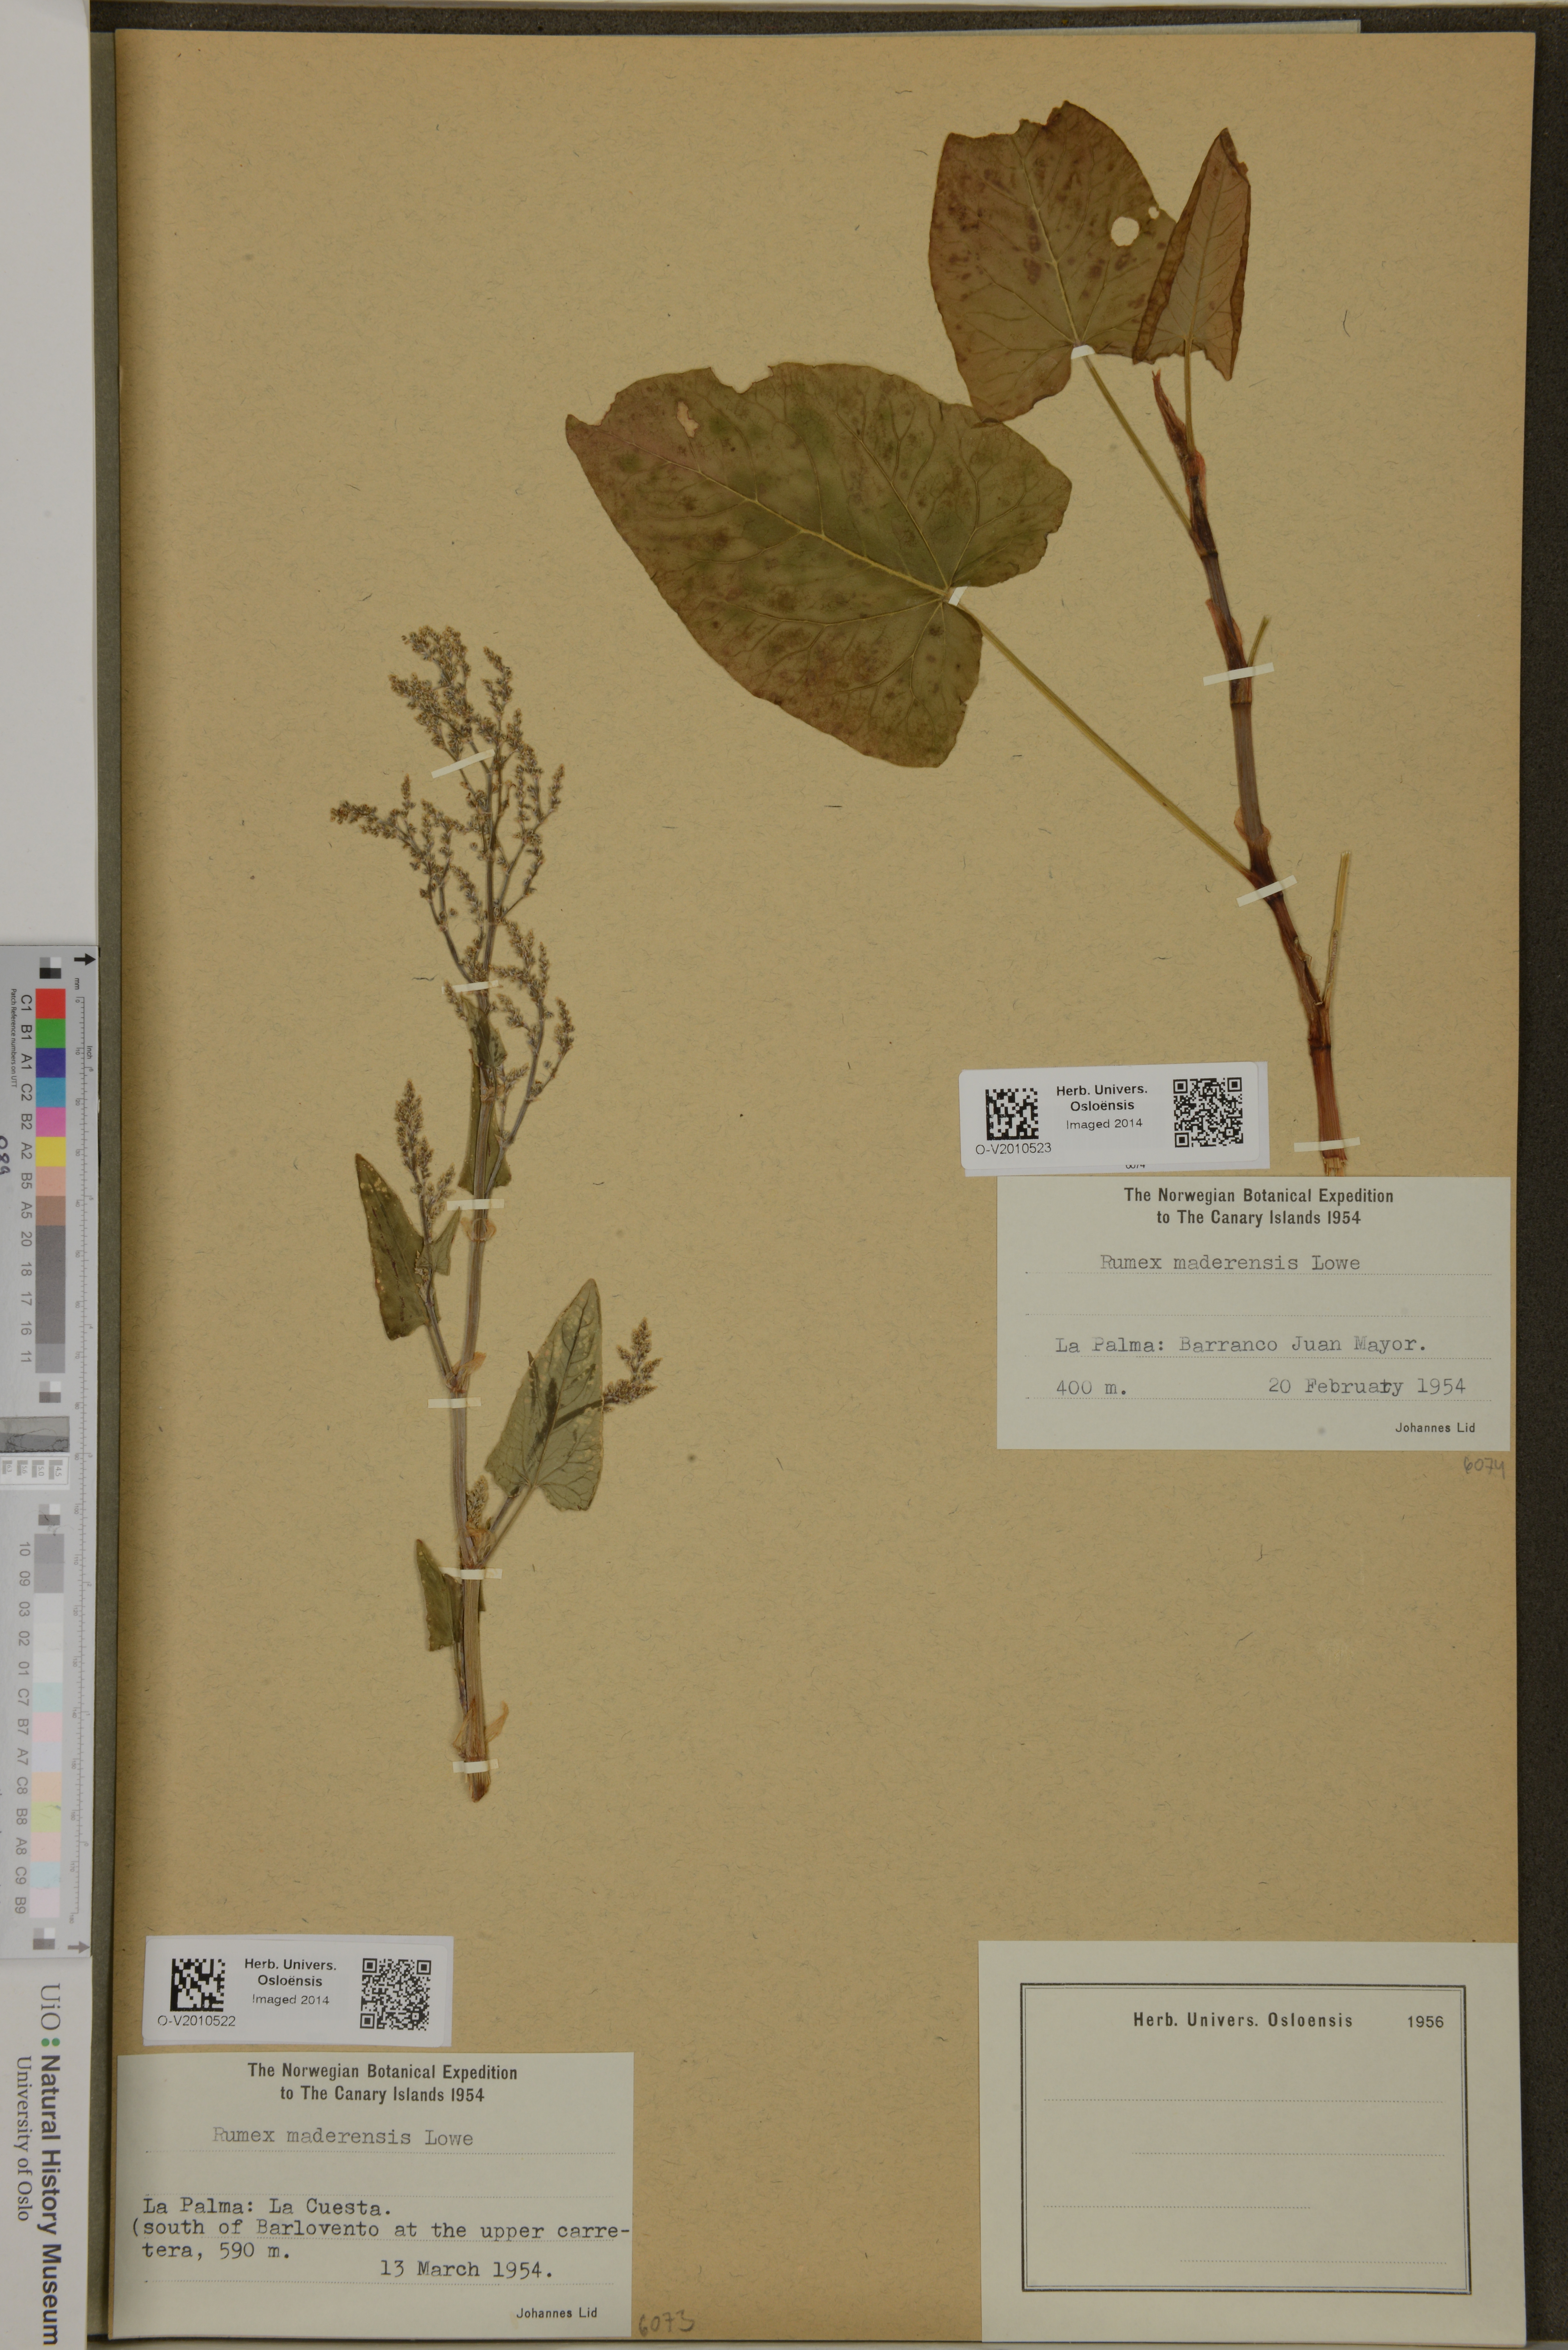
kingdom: Plantae
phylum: Tracheophyta
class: Magnoliopsida
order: Caryophyllales
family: Polygonaceae
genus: Rumex
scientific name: Rumex maderensis
